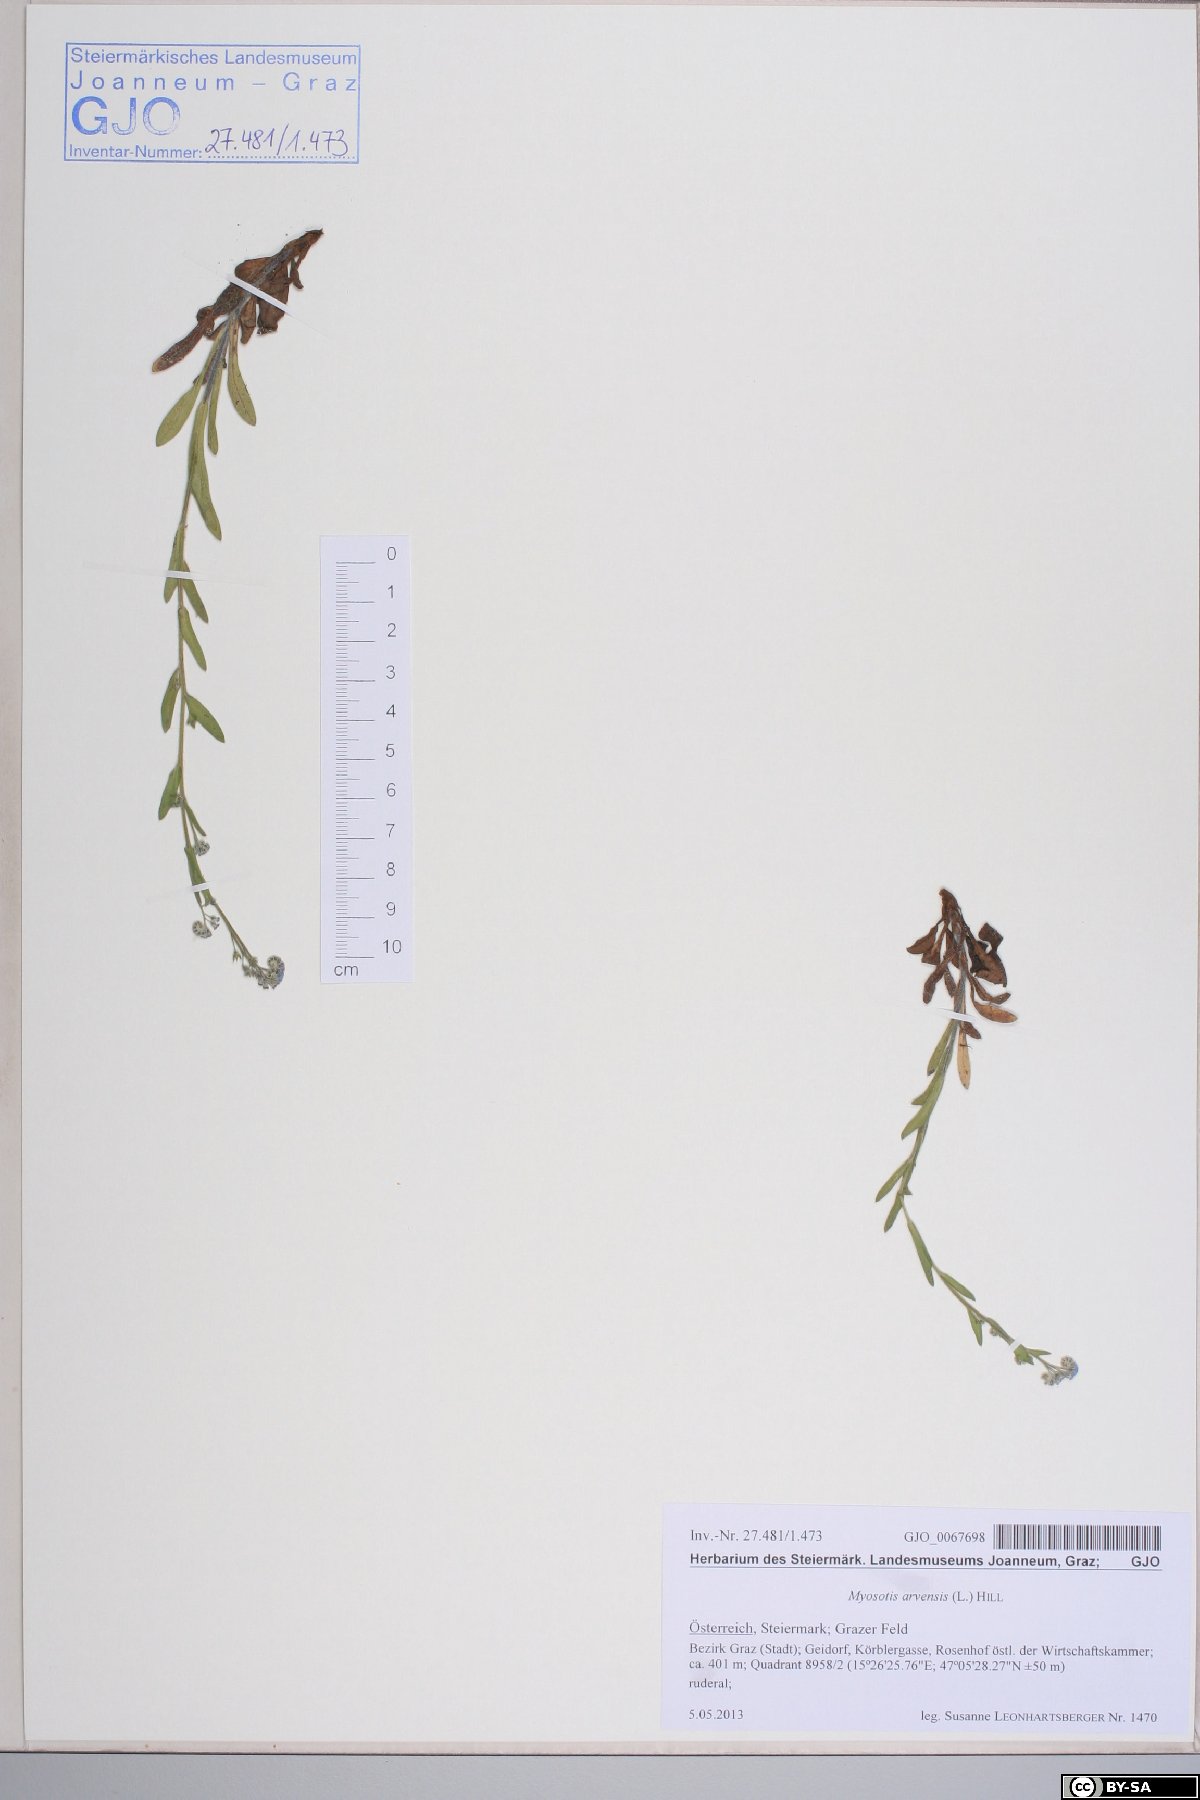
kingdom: Plantae
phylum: Tracheophyta
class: Magnoliopsida
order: Boraginales
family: Boraginaceae
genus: Myosotis
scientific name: Myosotis arvensis
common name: Field forget-me-not
